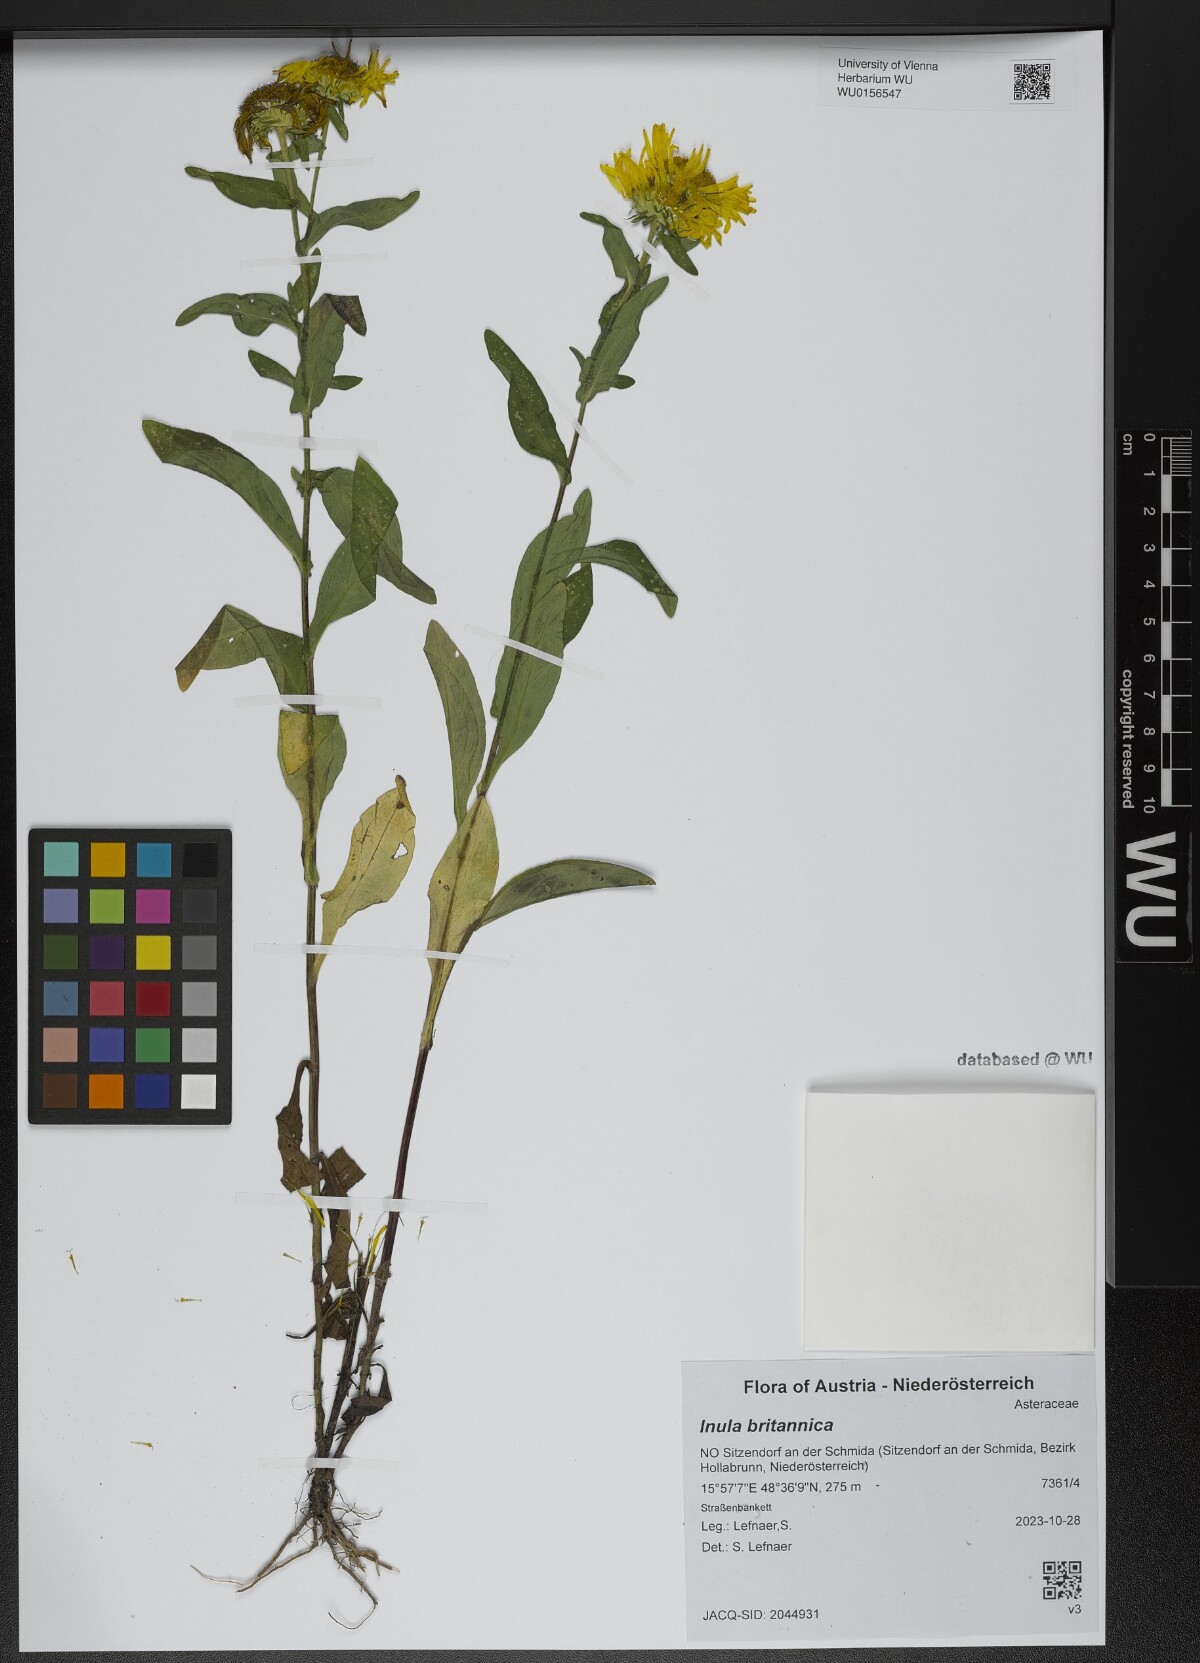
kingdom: Plantae
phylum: Tracheophyta
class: Magnoliopsida
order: Asterales
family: Asteraceae
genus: Pentanema
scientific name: Pentanema britannicum
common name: British elecampane
